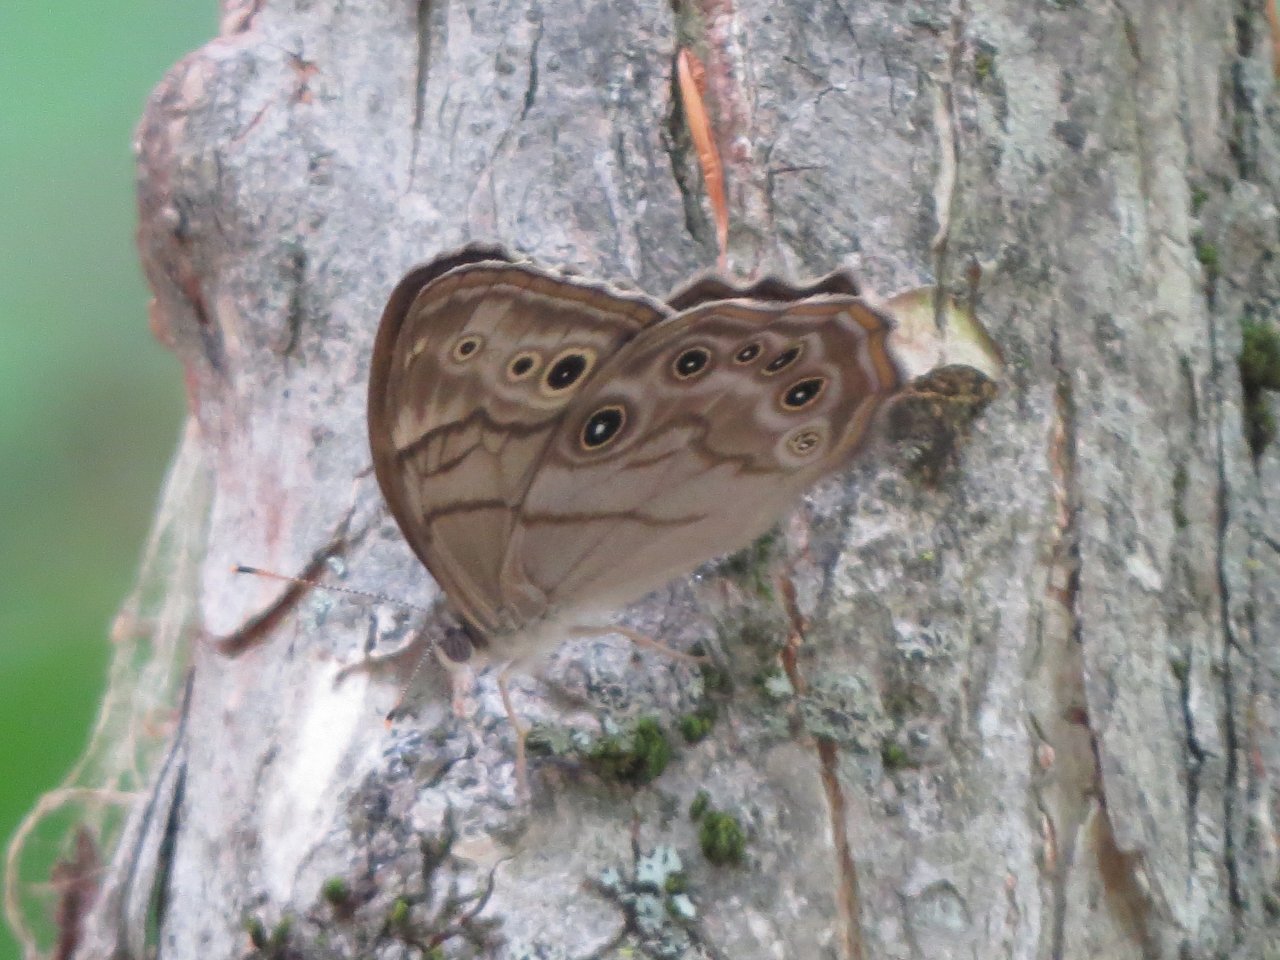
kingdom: Animalia
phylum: Arthropoda
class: Insecta
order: Lepidoptera
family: Nymphalidae
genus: Lethe
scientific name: Lethe anthedon
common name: Northern Pearly-Eye
